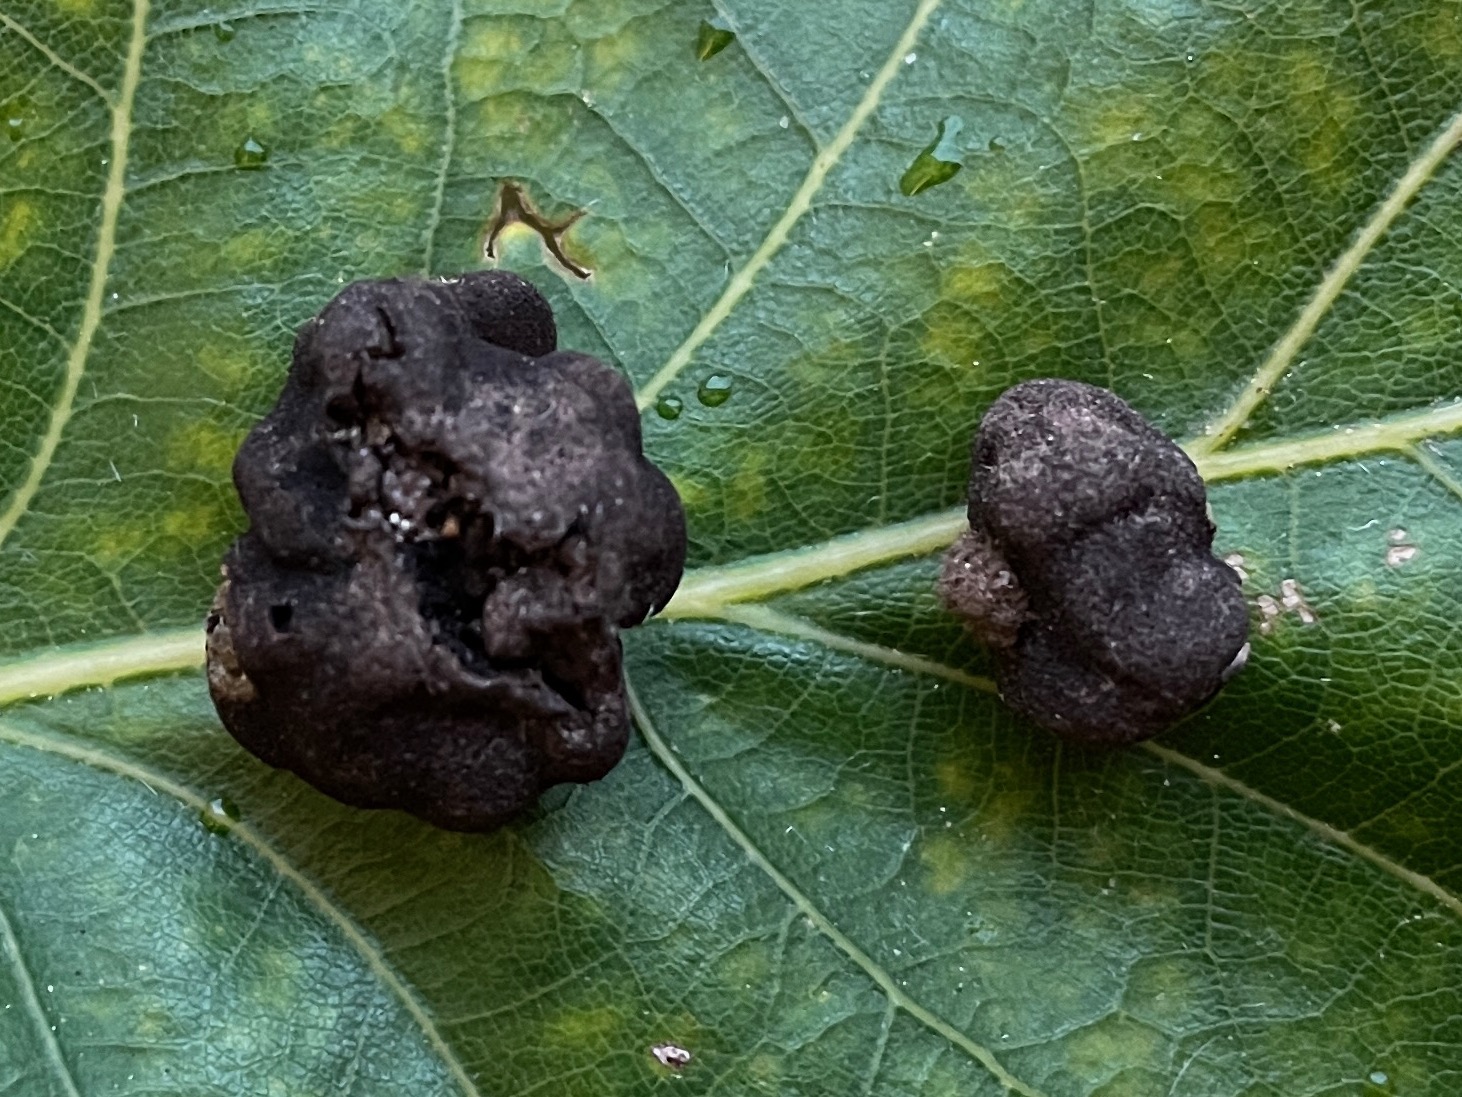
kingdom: Fungi
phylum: Ascomycota
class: Pezizomycetes
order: Pezizales
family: Pyronemataceae
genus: Genea
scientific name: Genea verrucosa
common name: vortet halvtrøffel
